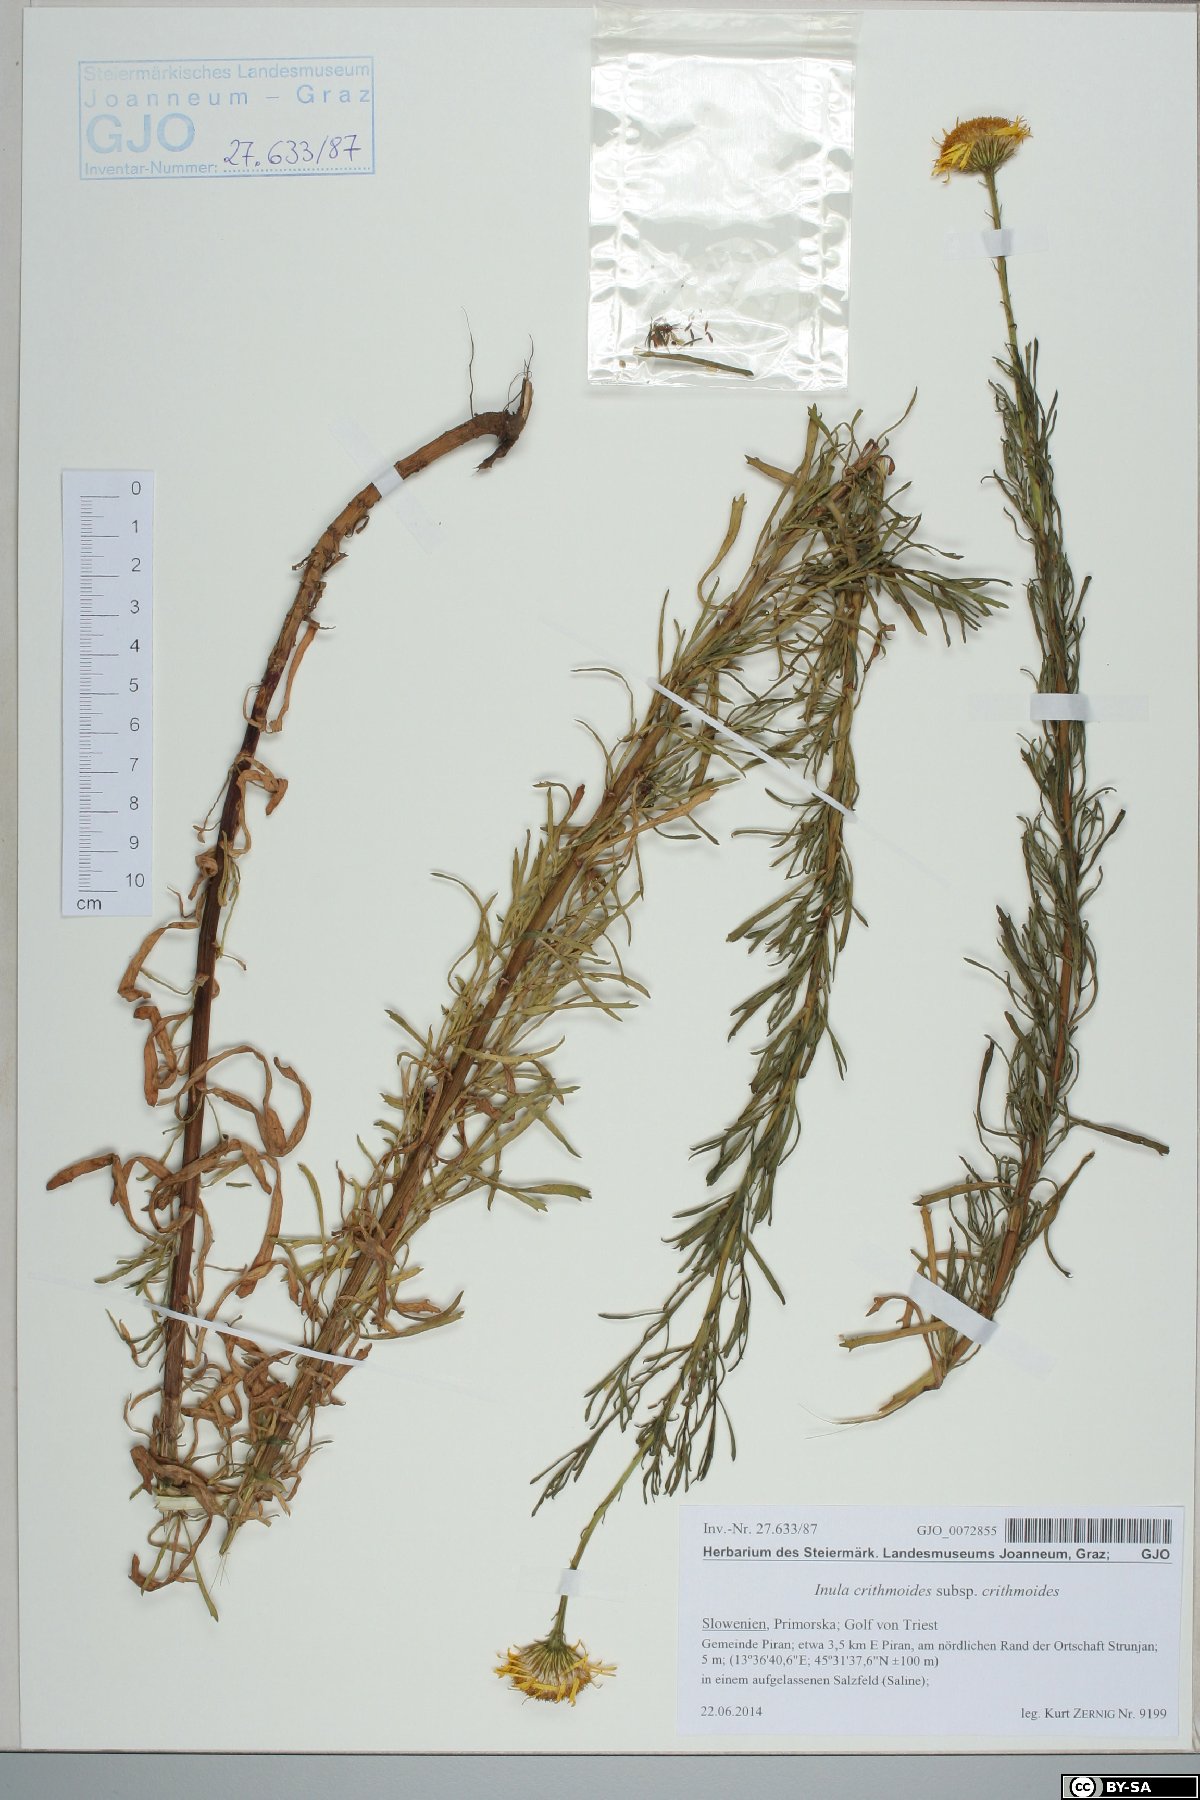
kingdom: Plantae
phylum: Tracheophyta
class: Magnoliopsida
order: Asterales
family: Asteraceae
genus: Limbarda
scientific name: Limbarda crithmoides
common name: Golden samphire
